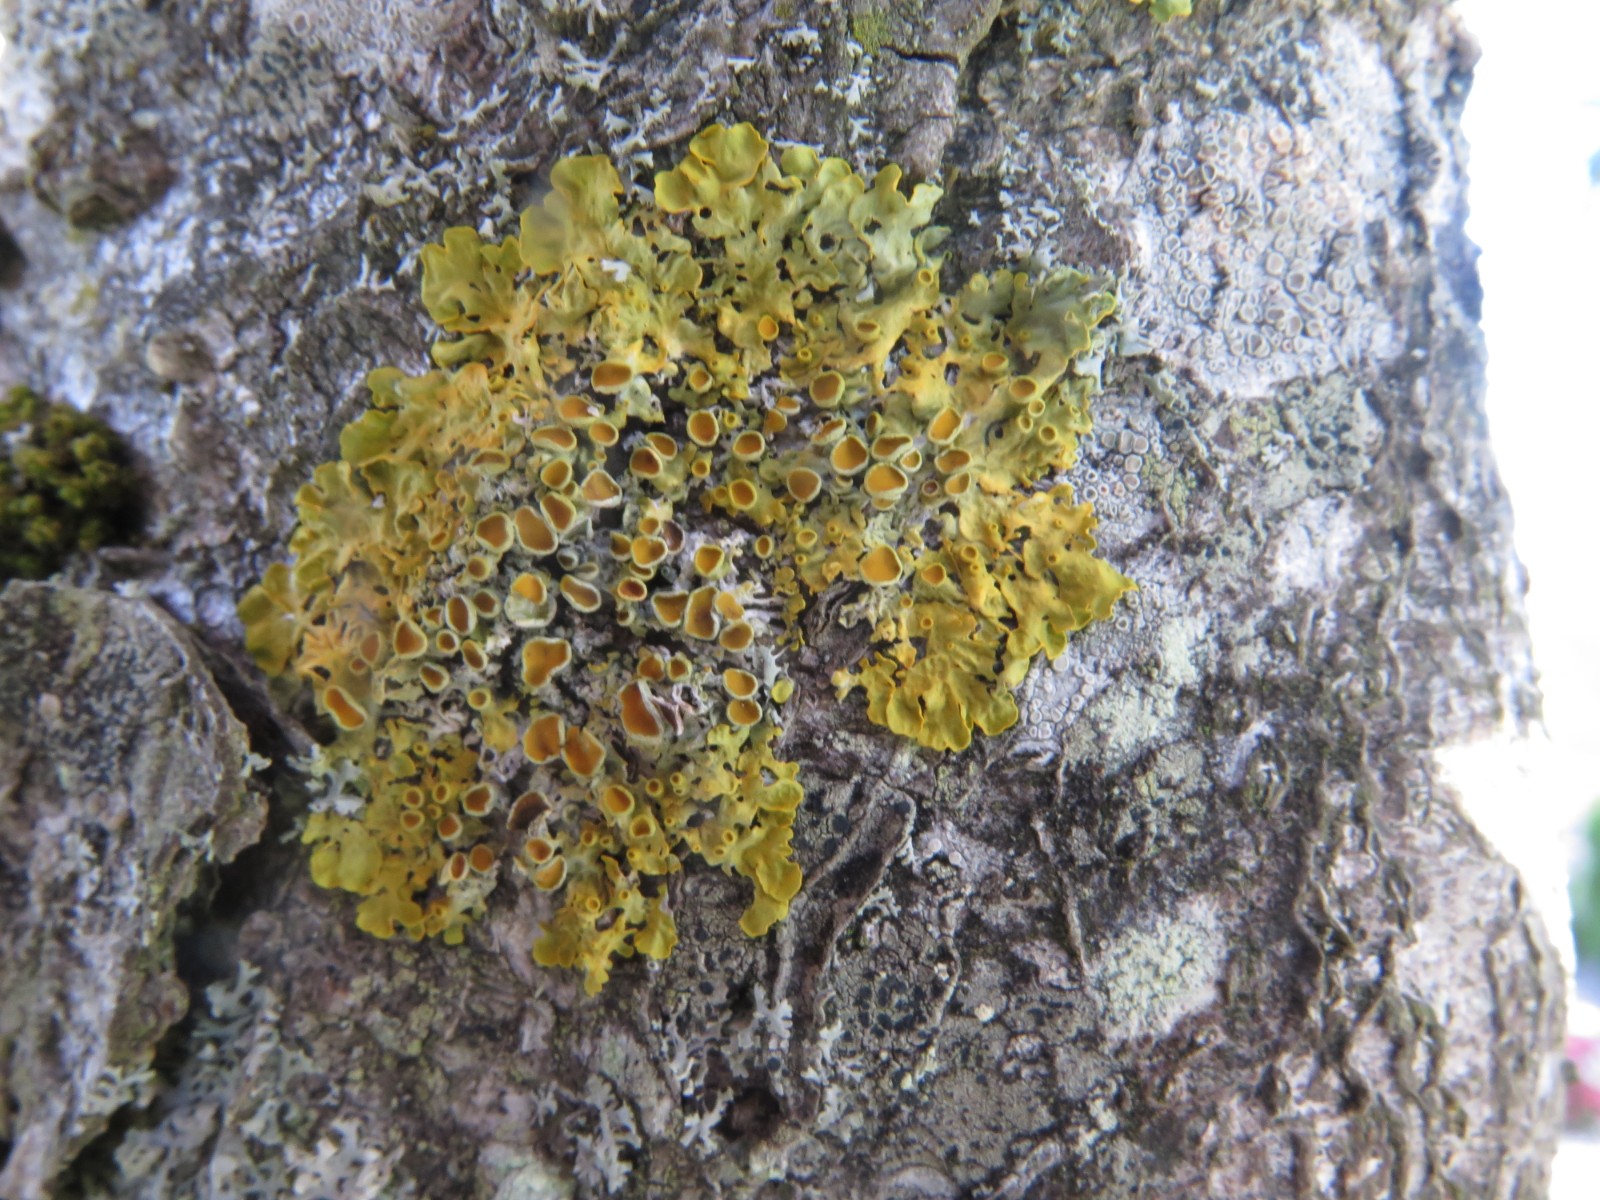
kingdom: Fungi
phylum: Ascomycota
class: Lecanoromycetes
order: Teloschistales
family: Teloschistaceae
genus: Xanthoria
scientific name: Xanthoria parietina
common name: almindelig væggelav
